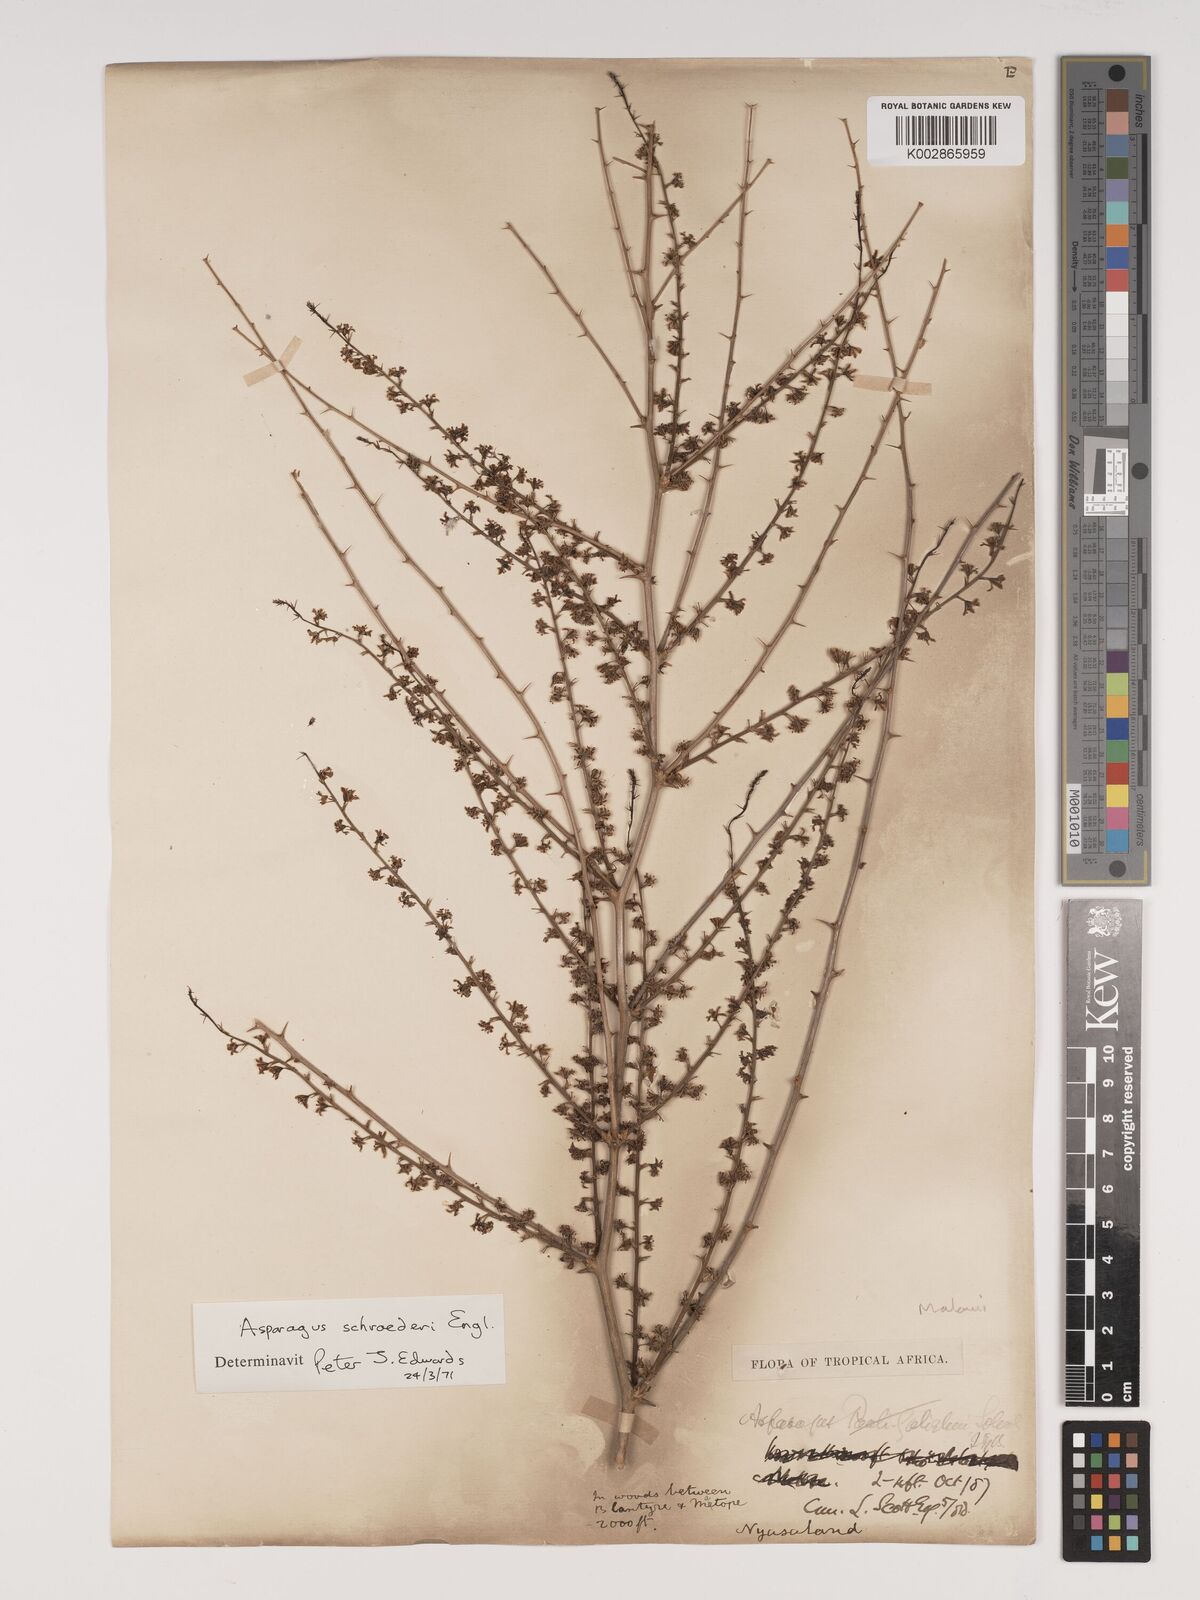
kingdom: Plantae
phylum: Tracheophyta
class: Liliopsida
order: Asparagales
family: Asparagaceae
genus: Asparagus
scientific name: Asparagus schroederi
